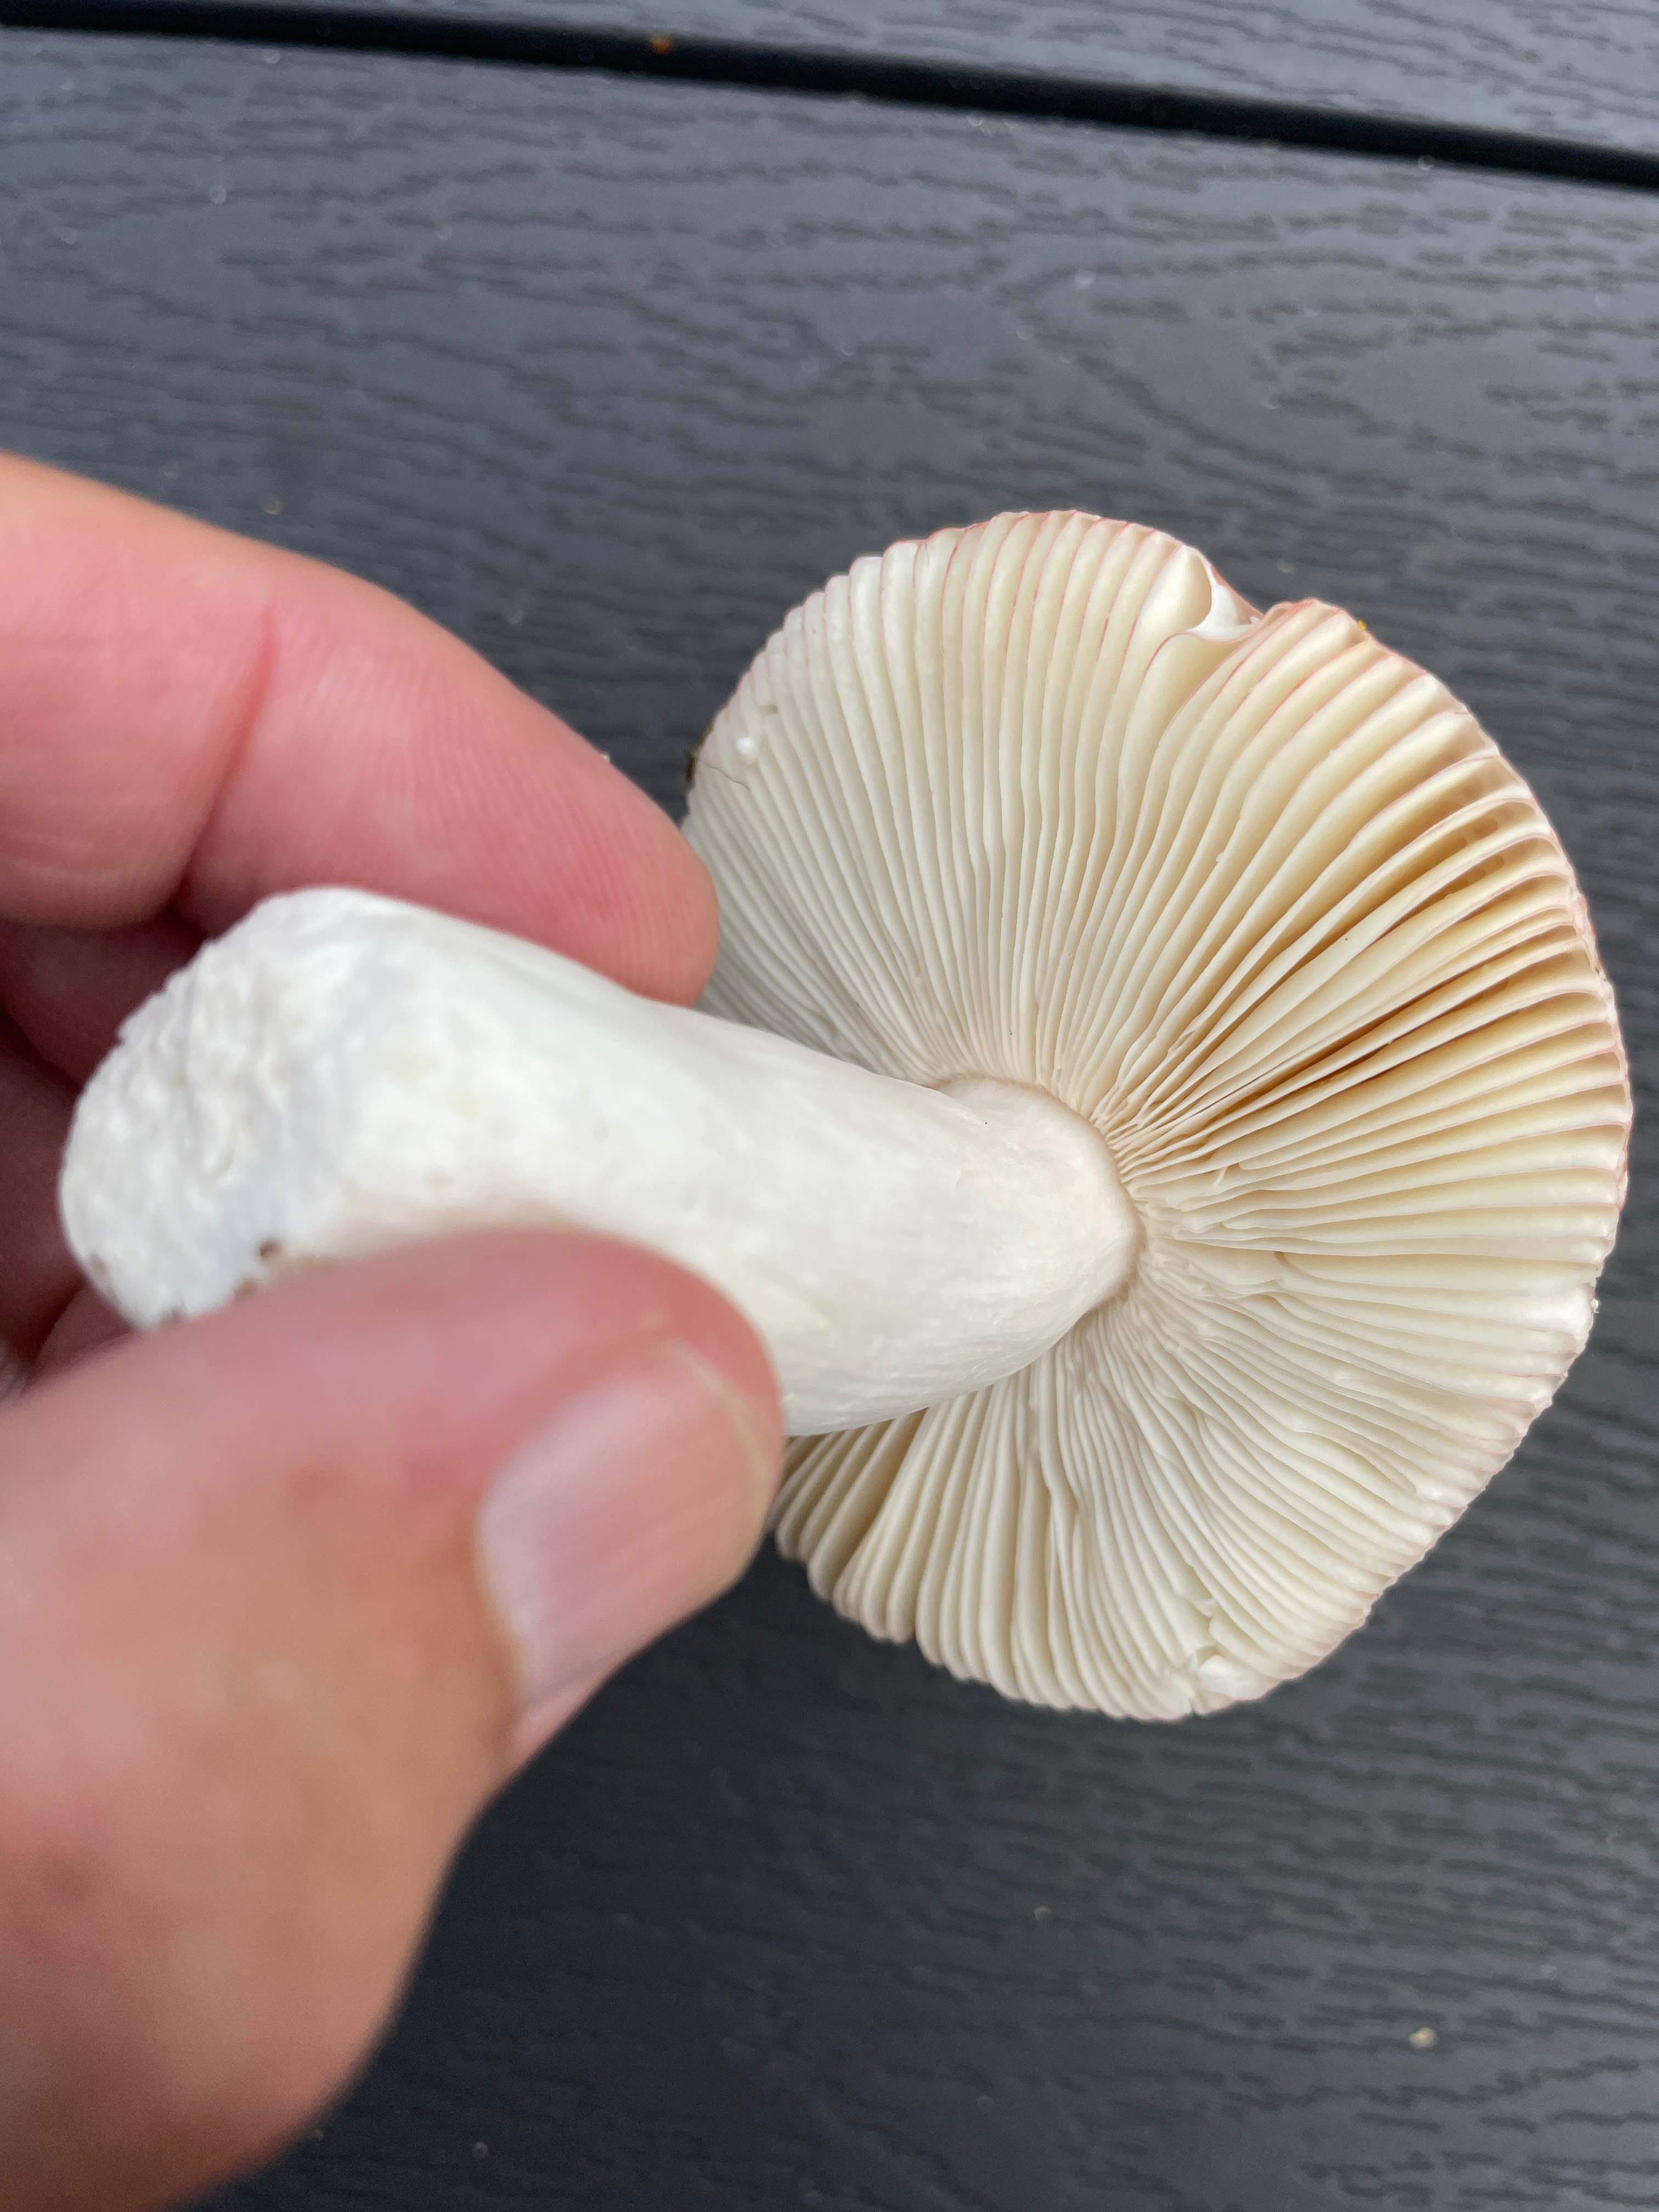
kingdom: Fungi
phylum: Basidiomycota
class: Agaricomycetes
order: Russulales
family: Russulaceae
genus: Russula
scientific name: Russula
